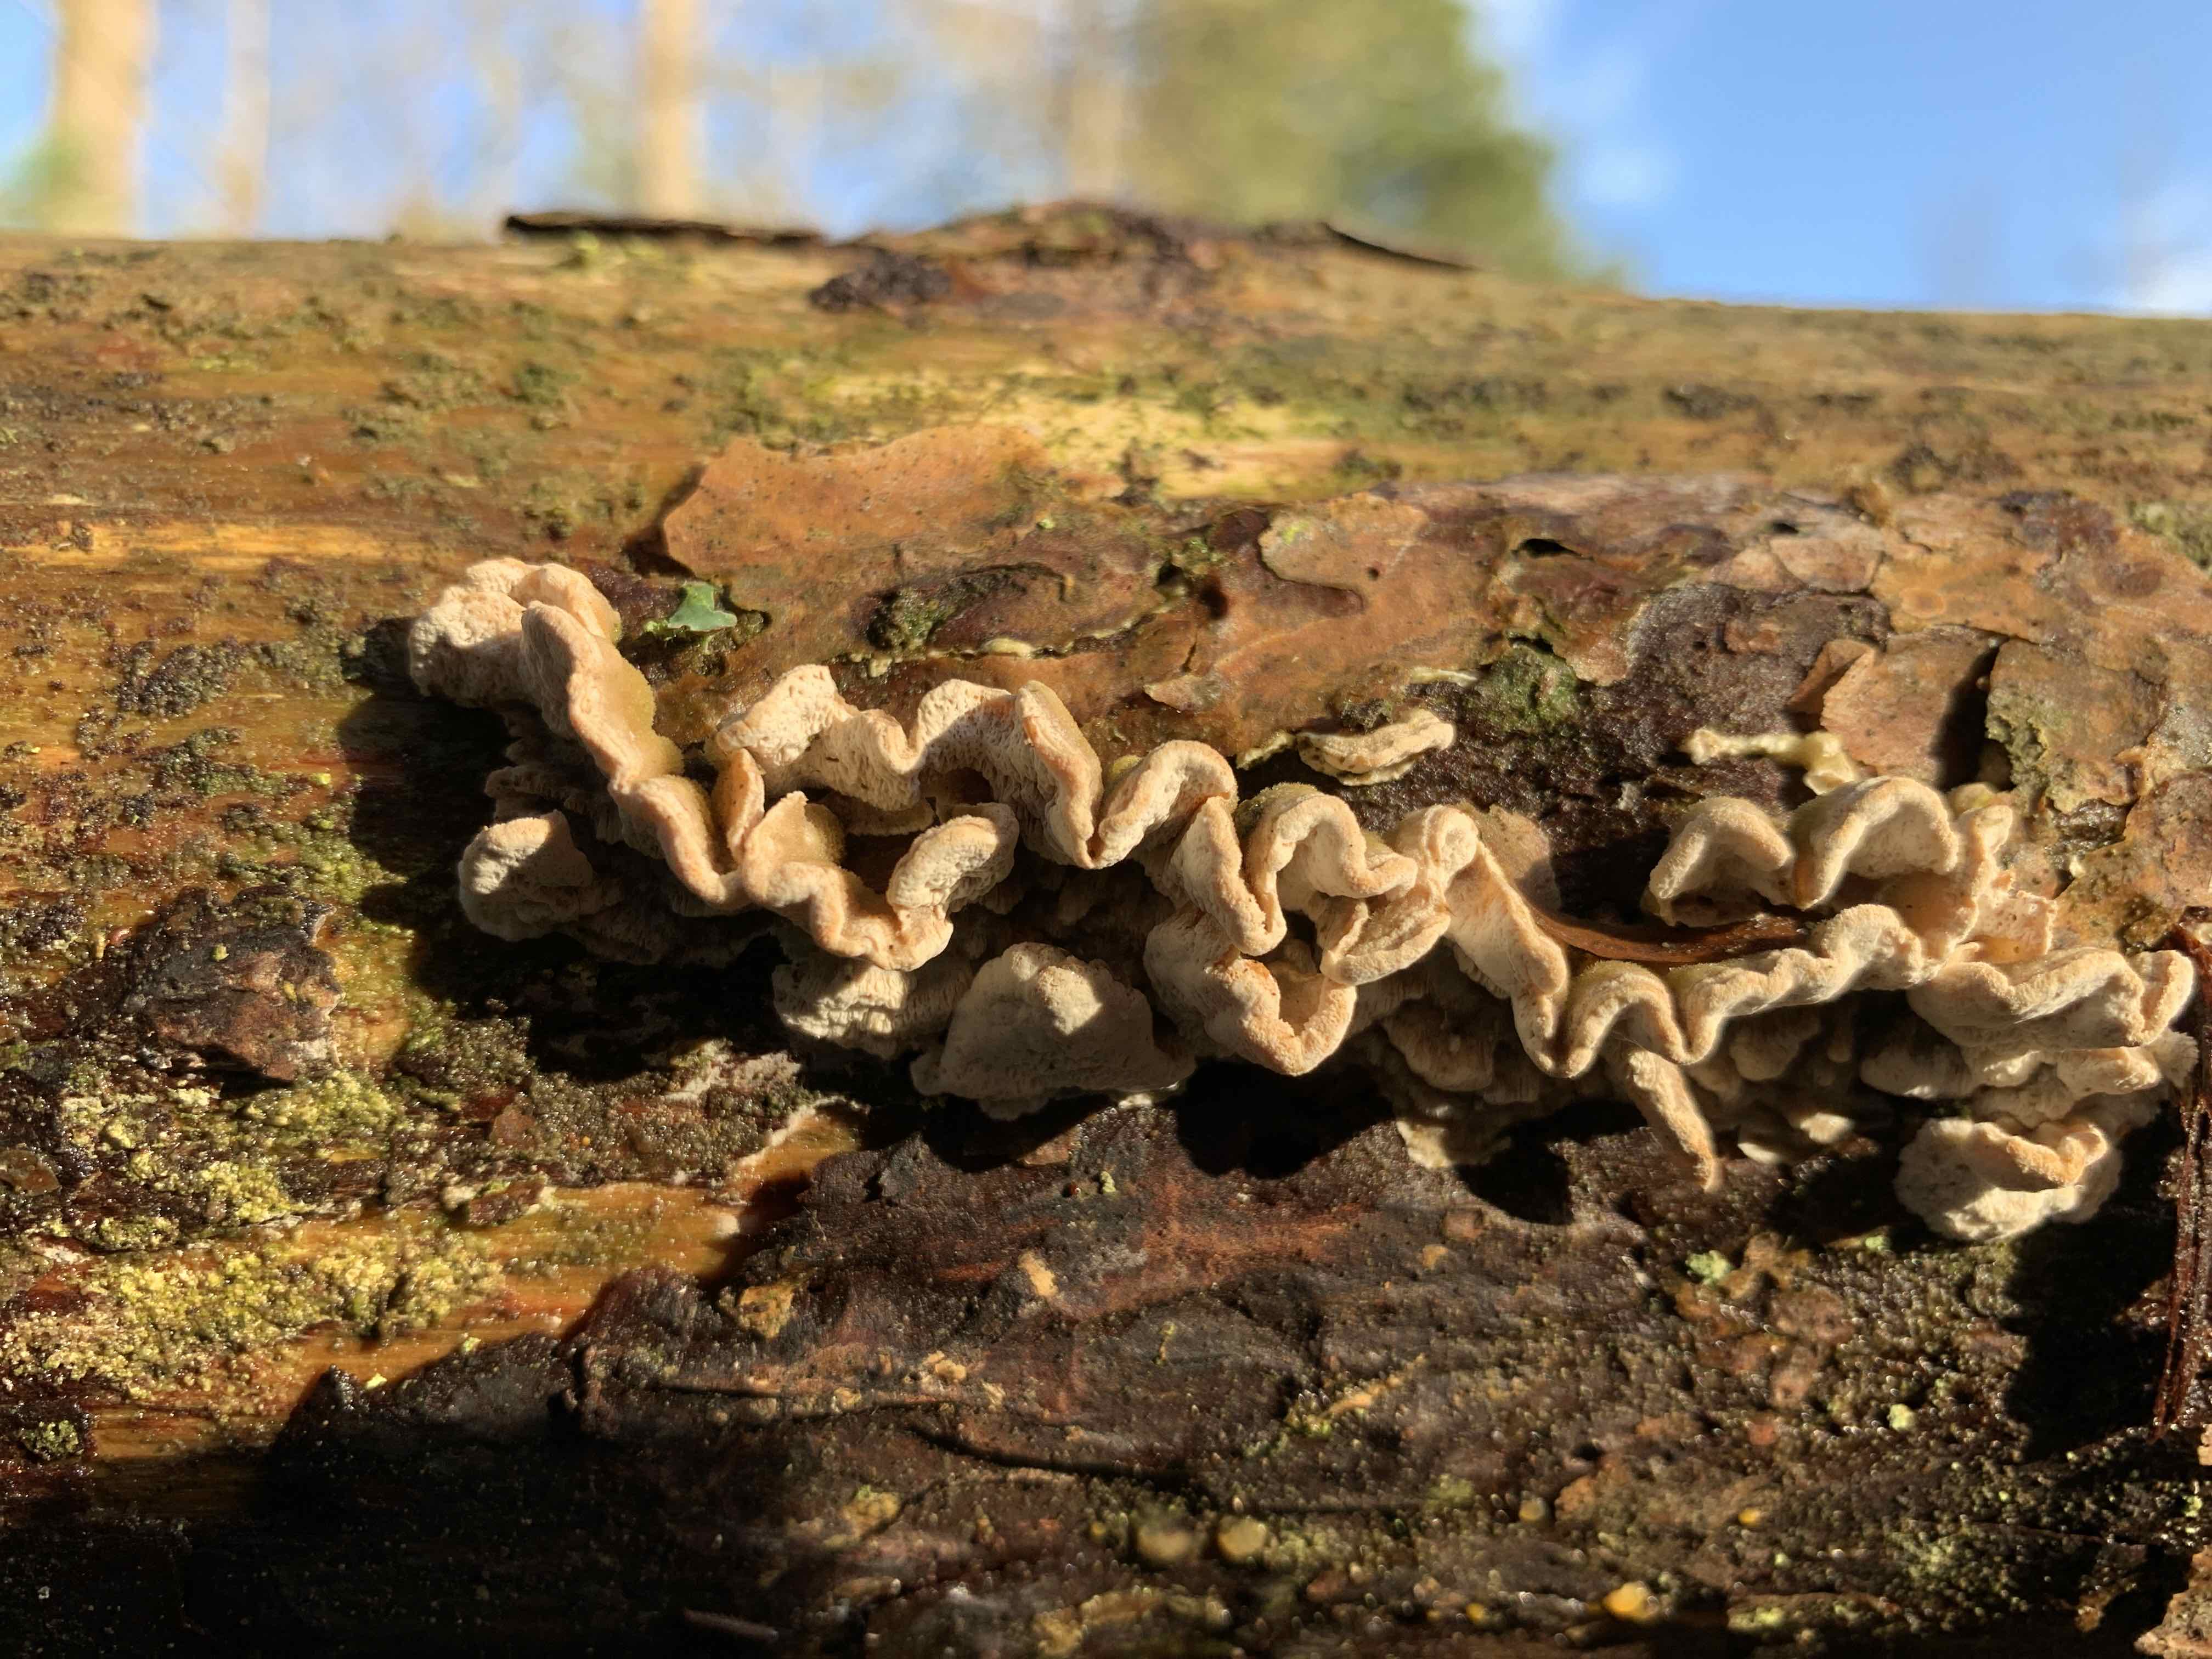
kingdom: Fungi
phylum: Basidiomycota
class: Agaricomycetes
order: Polyporales
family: Incrustoporiaceae
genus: Skeletocutis
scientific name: Skeletocutis carneogrisea
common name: rødgrå krystalporesvamp
